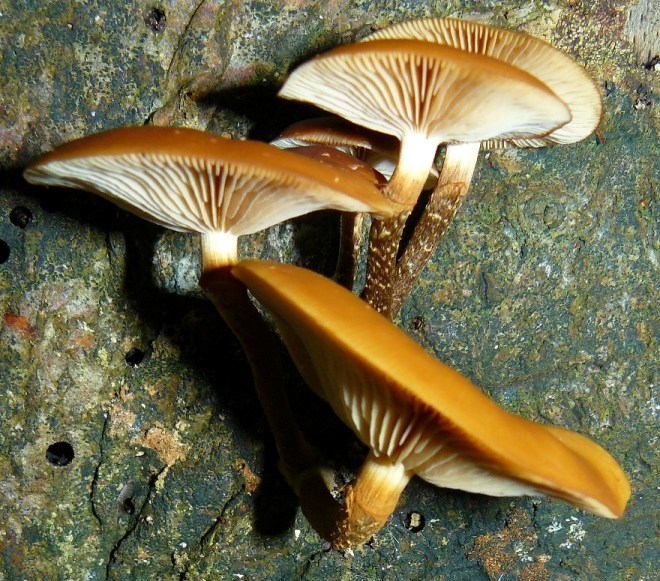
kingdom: Fungi
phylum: Basidiomycota
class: Agaricomycetes
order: Agaricales
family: Strophariaceae
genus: Kuehneromyces
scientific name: Kuehneromyces mutabilis
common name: foranderlig skælhat
